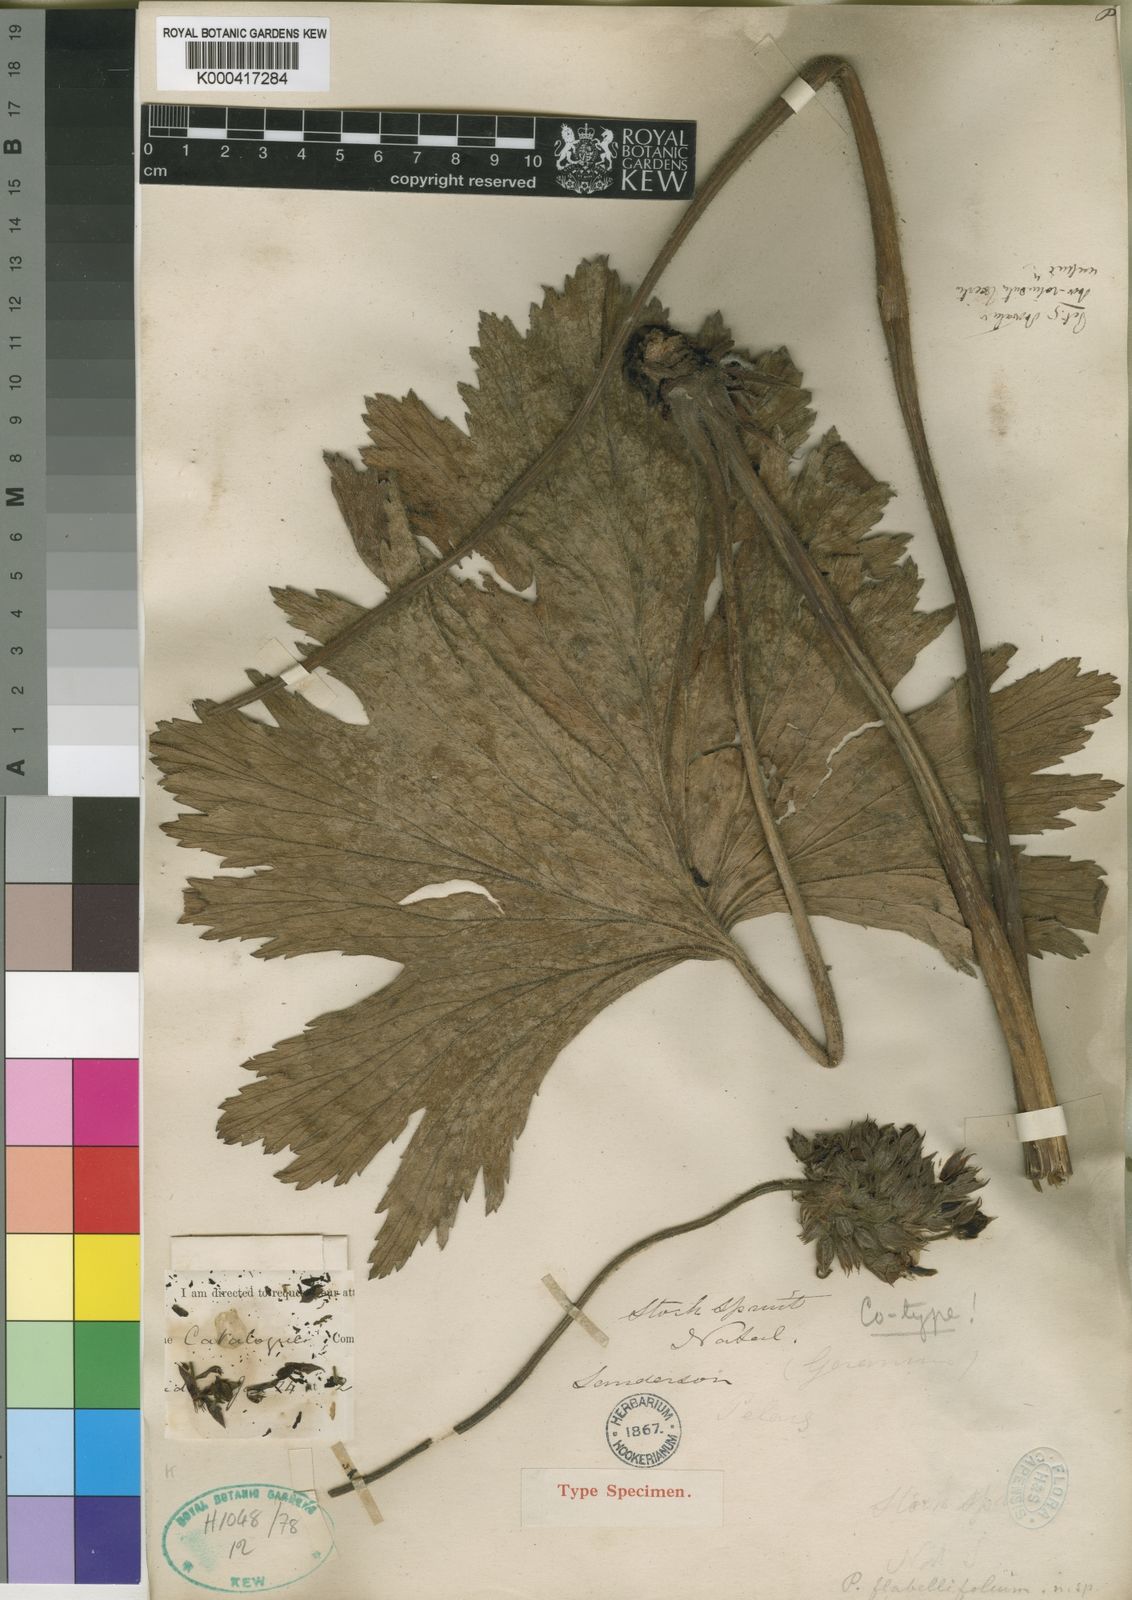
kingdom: Plantae
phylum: Tracheophyta
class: Magnoliopsida
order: Geraniales
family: Geraniaceae
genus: Pelargonium
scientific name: Pelargonium luridum
